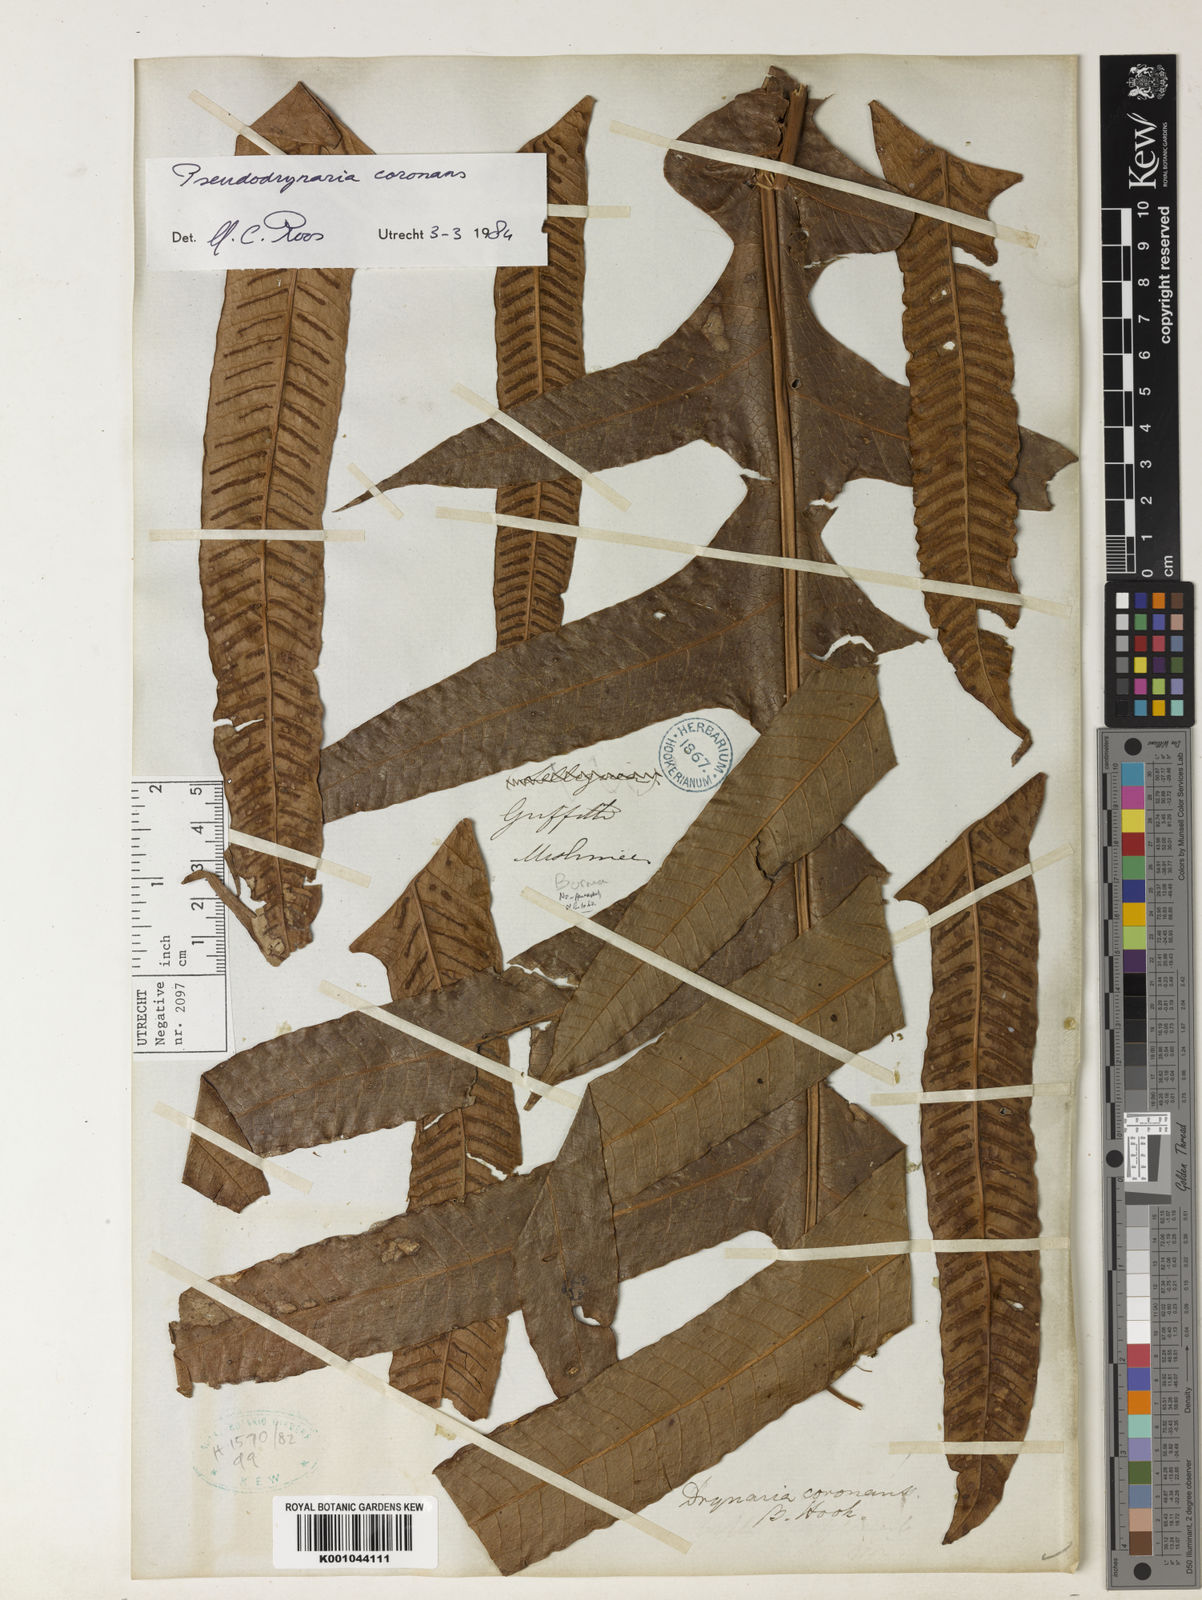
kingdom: Plantae
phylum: Tracheophyta
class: Polypodiopsida
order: Polypodiales
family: Polypodiaceae
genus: Drynaria
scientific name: Drynaria coronans
